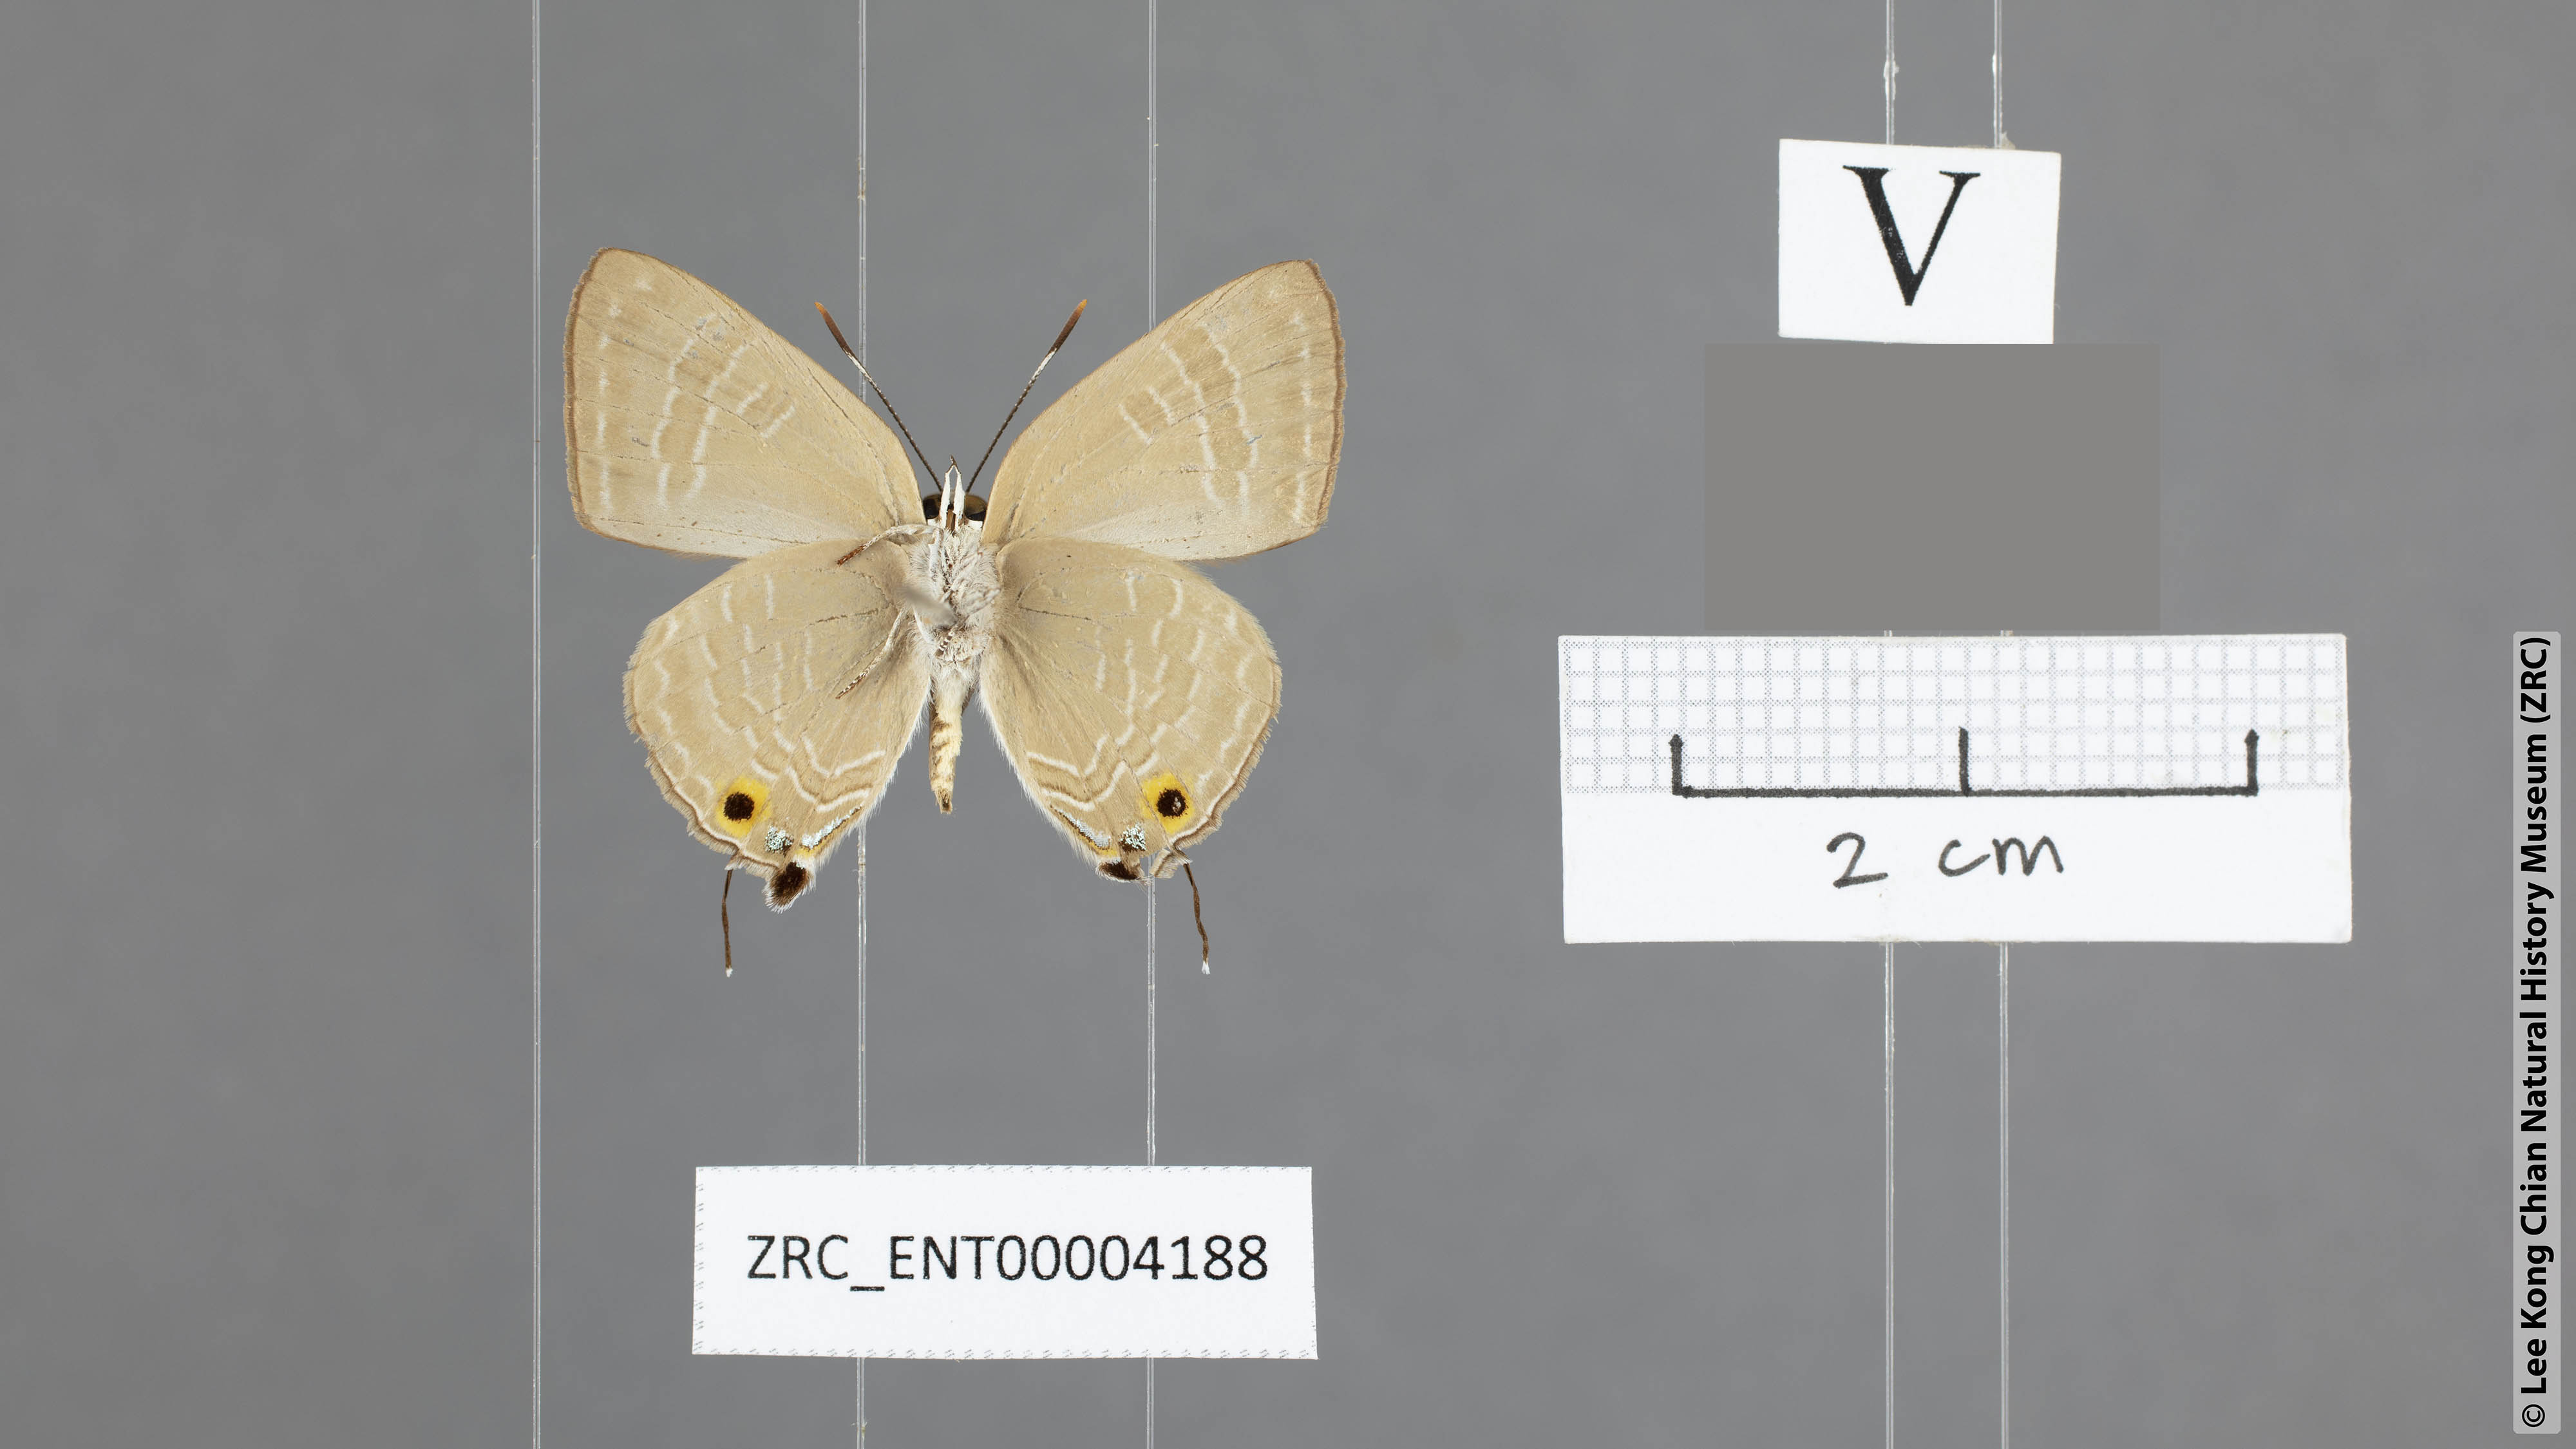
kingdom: Animalia
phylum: Arthropoda
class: Insecta
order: Lepidoptera
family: Lycaenidae
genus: Deudorix
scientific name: Deudorix elioti
